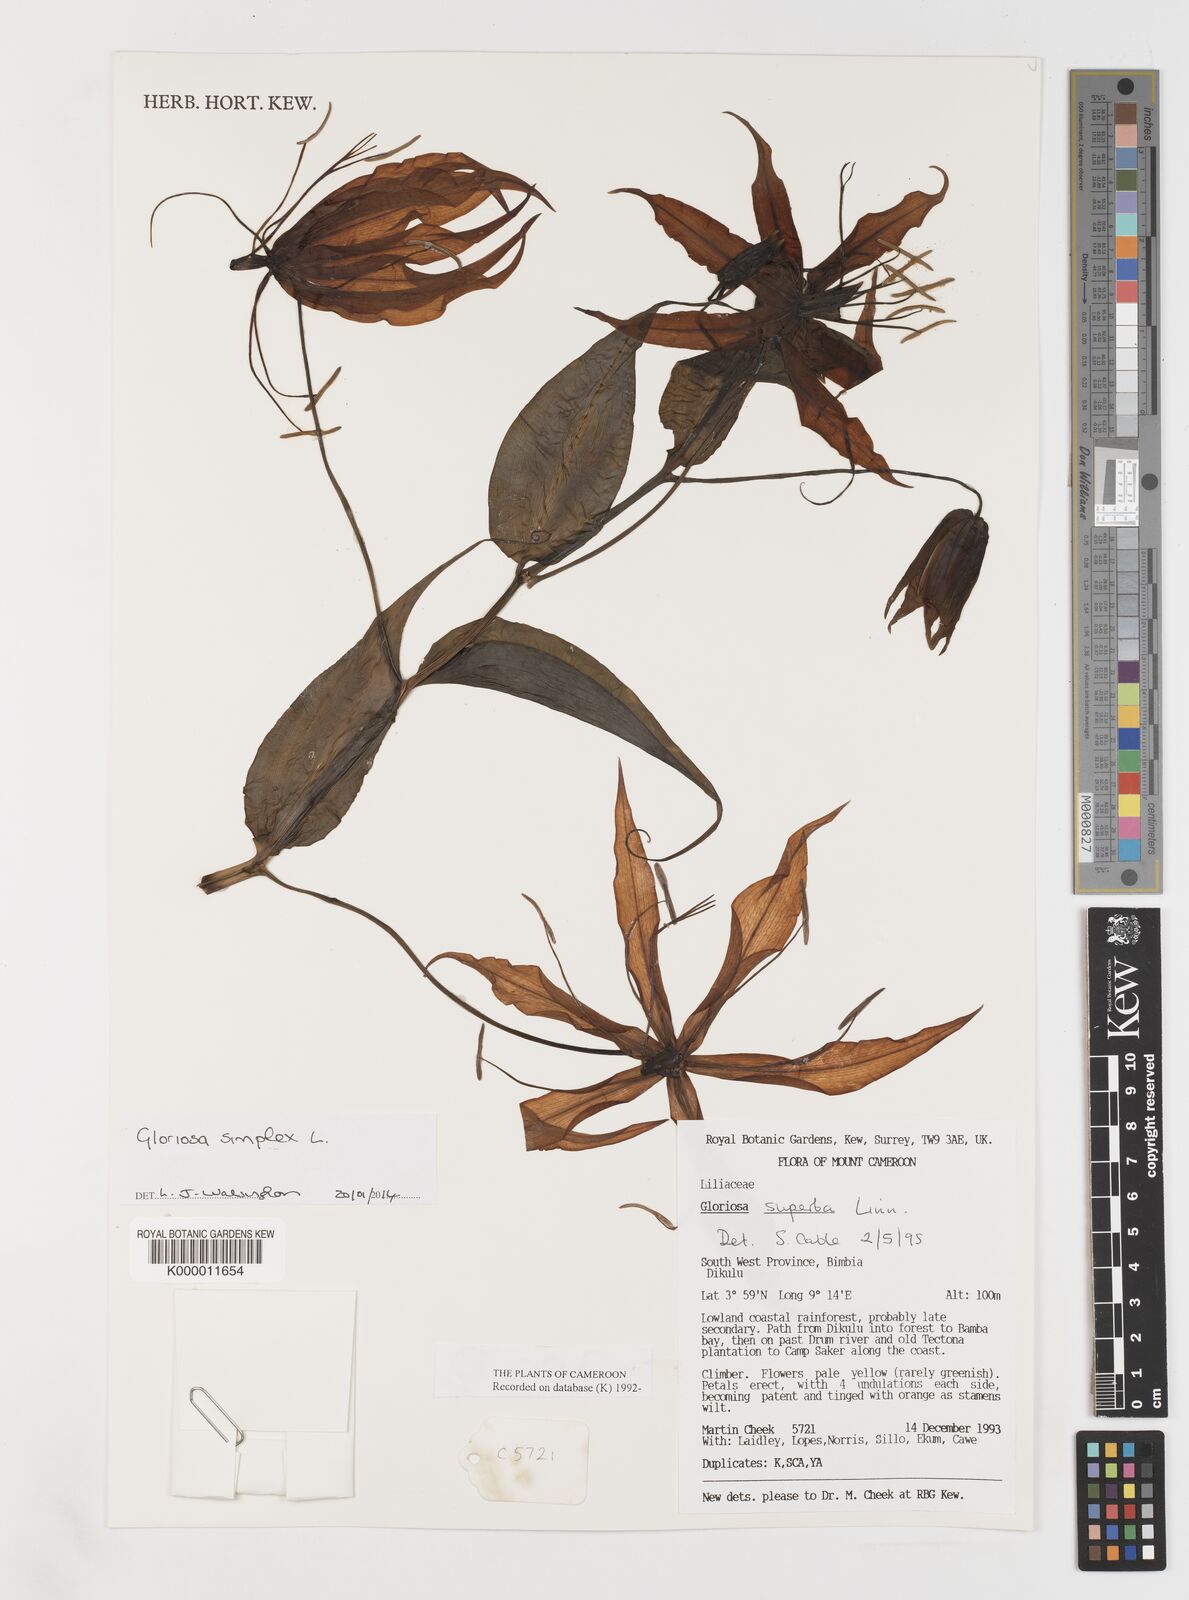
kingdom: Plantae
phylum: Tracheophyta
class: Liliopsida
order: Liliales
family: Colchicaceae
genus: Gloriosa
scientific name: Gloriosa superba
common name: Flame lily
